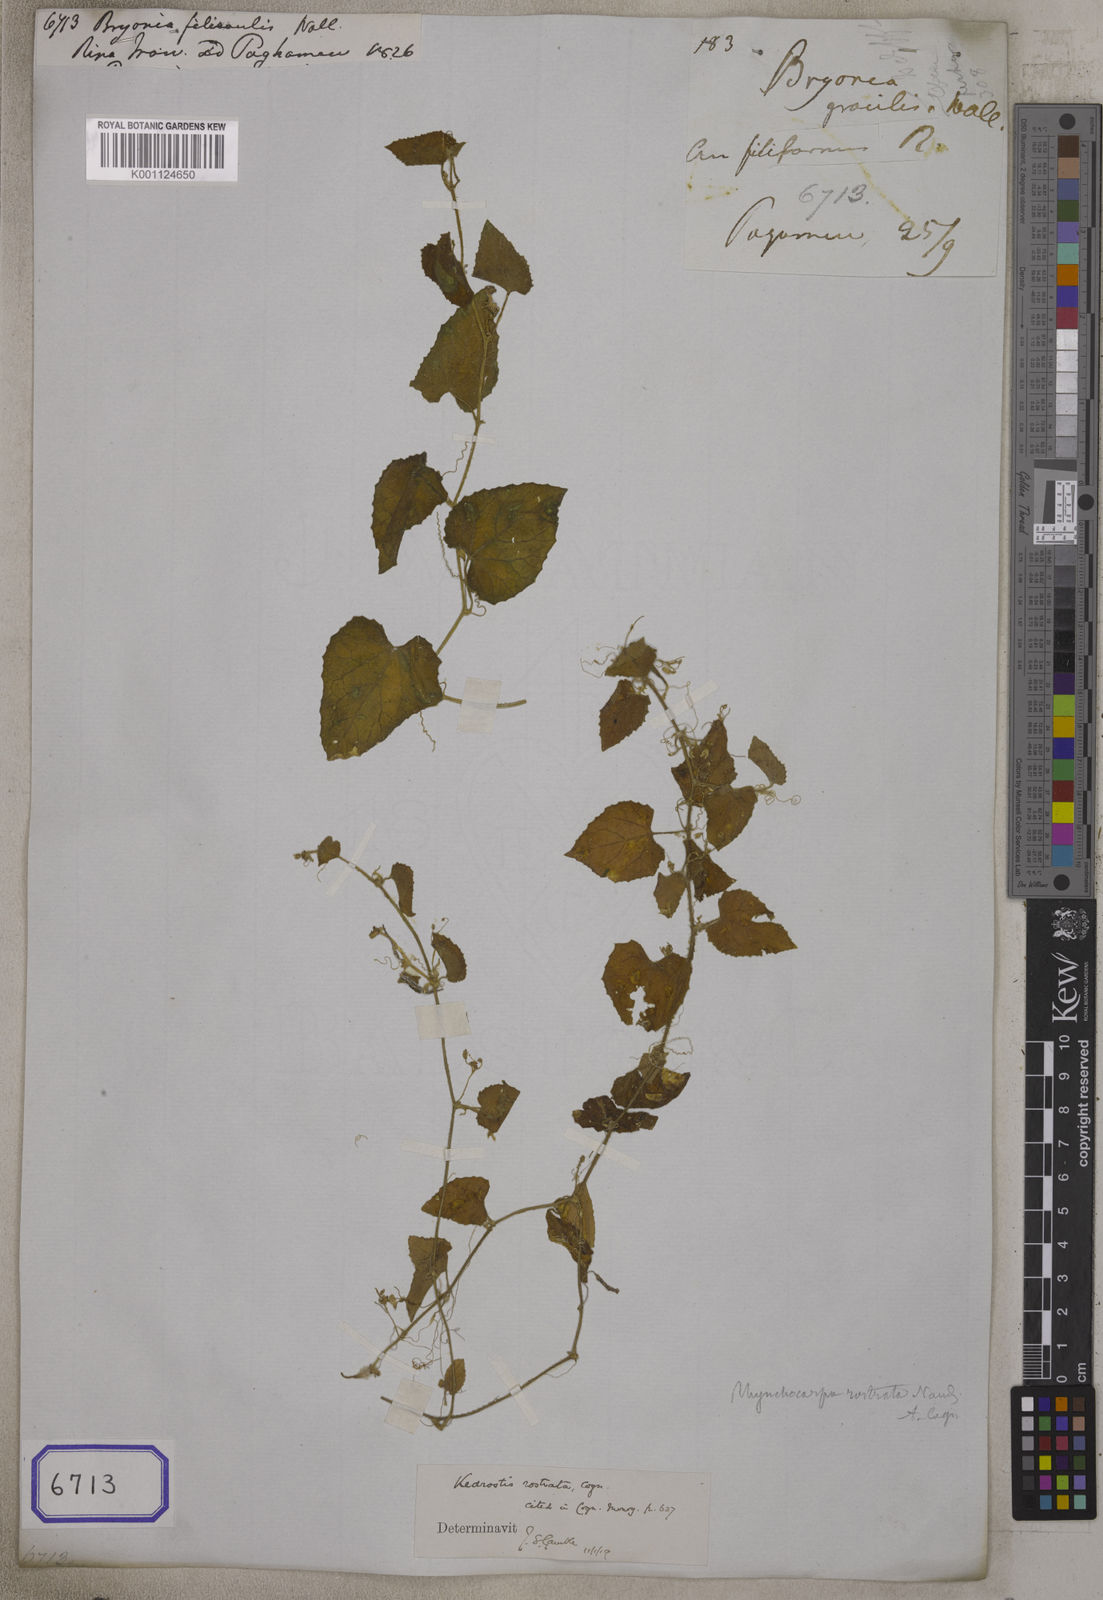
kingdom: Plantae
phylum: Tracheophyta
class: Magnoliopsida
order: Cucurbitales
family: Cucurbitaceae
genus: Scopellaria
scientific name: Scopellaria marginata
